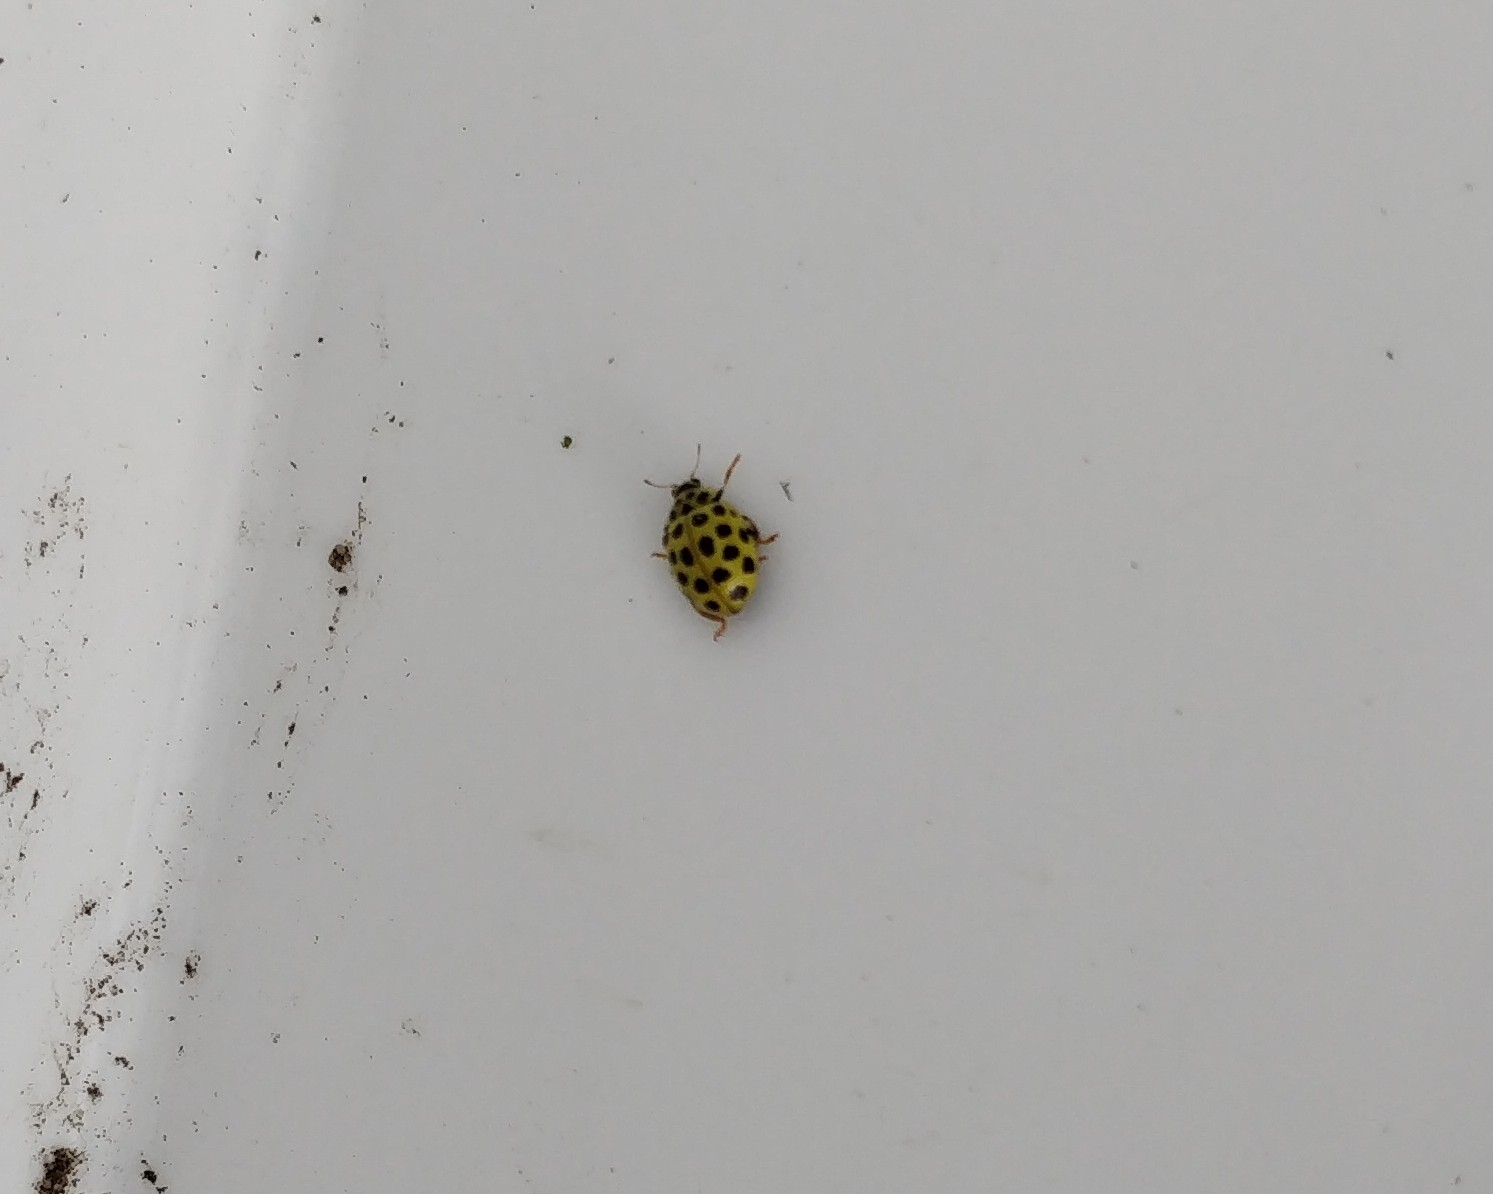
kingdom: Animalia
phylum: Arthropoda
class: Insecta
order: Coleoptera
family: Coccinellidae
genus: Psyllobora
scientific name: Psyllobora vigintiduopunctata
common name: Toogtyveplettet mariehøne
